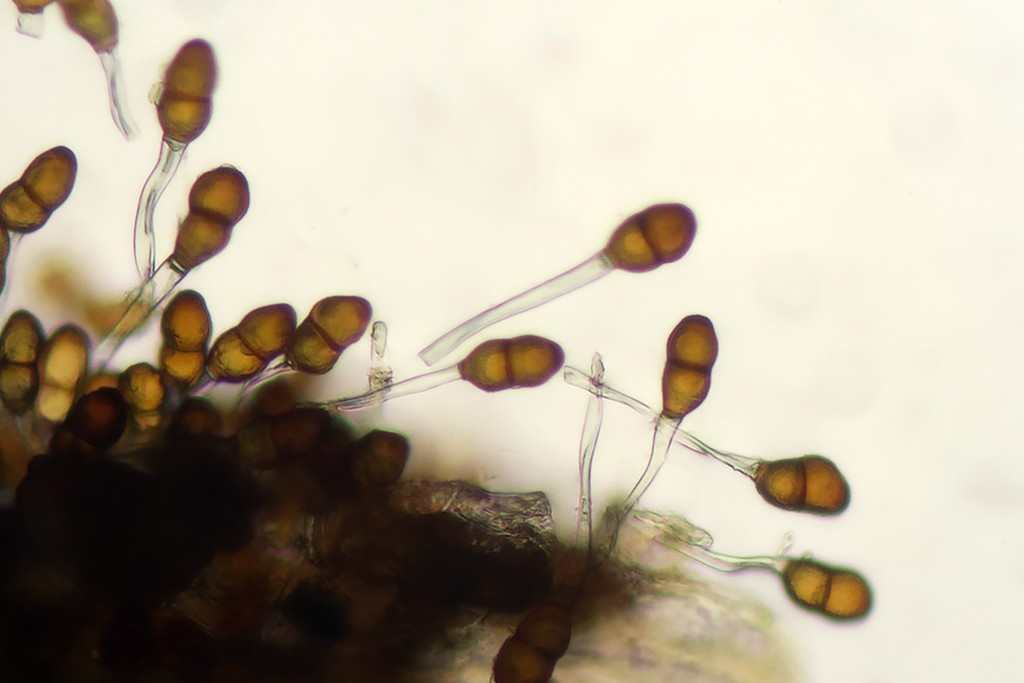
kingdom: Fungi
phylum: Basidiomycota
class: Pucciniomycetes
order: Pucciniales
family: Pucciniaceae
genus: Puccinia
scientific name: Puccinia tanaceti
